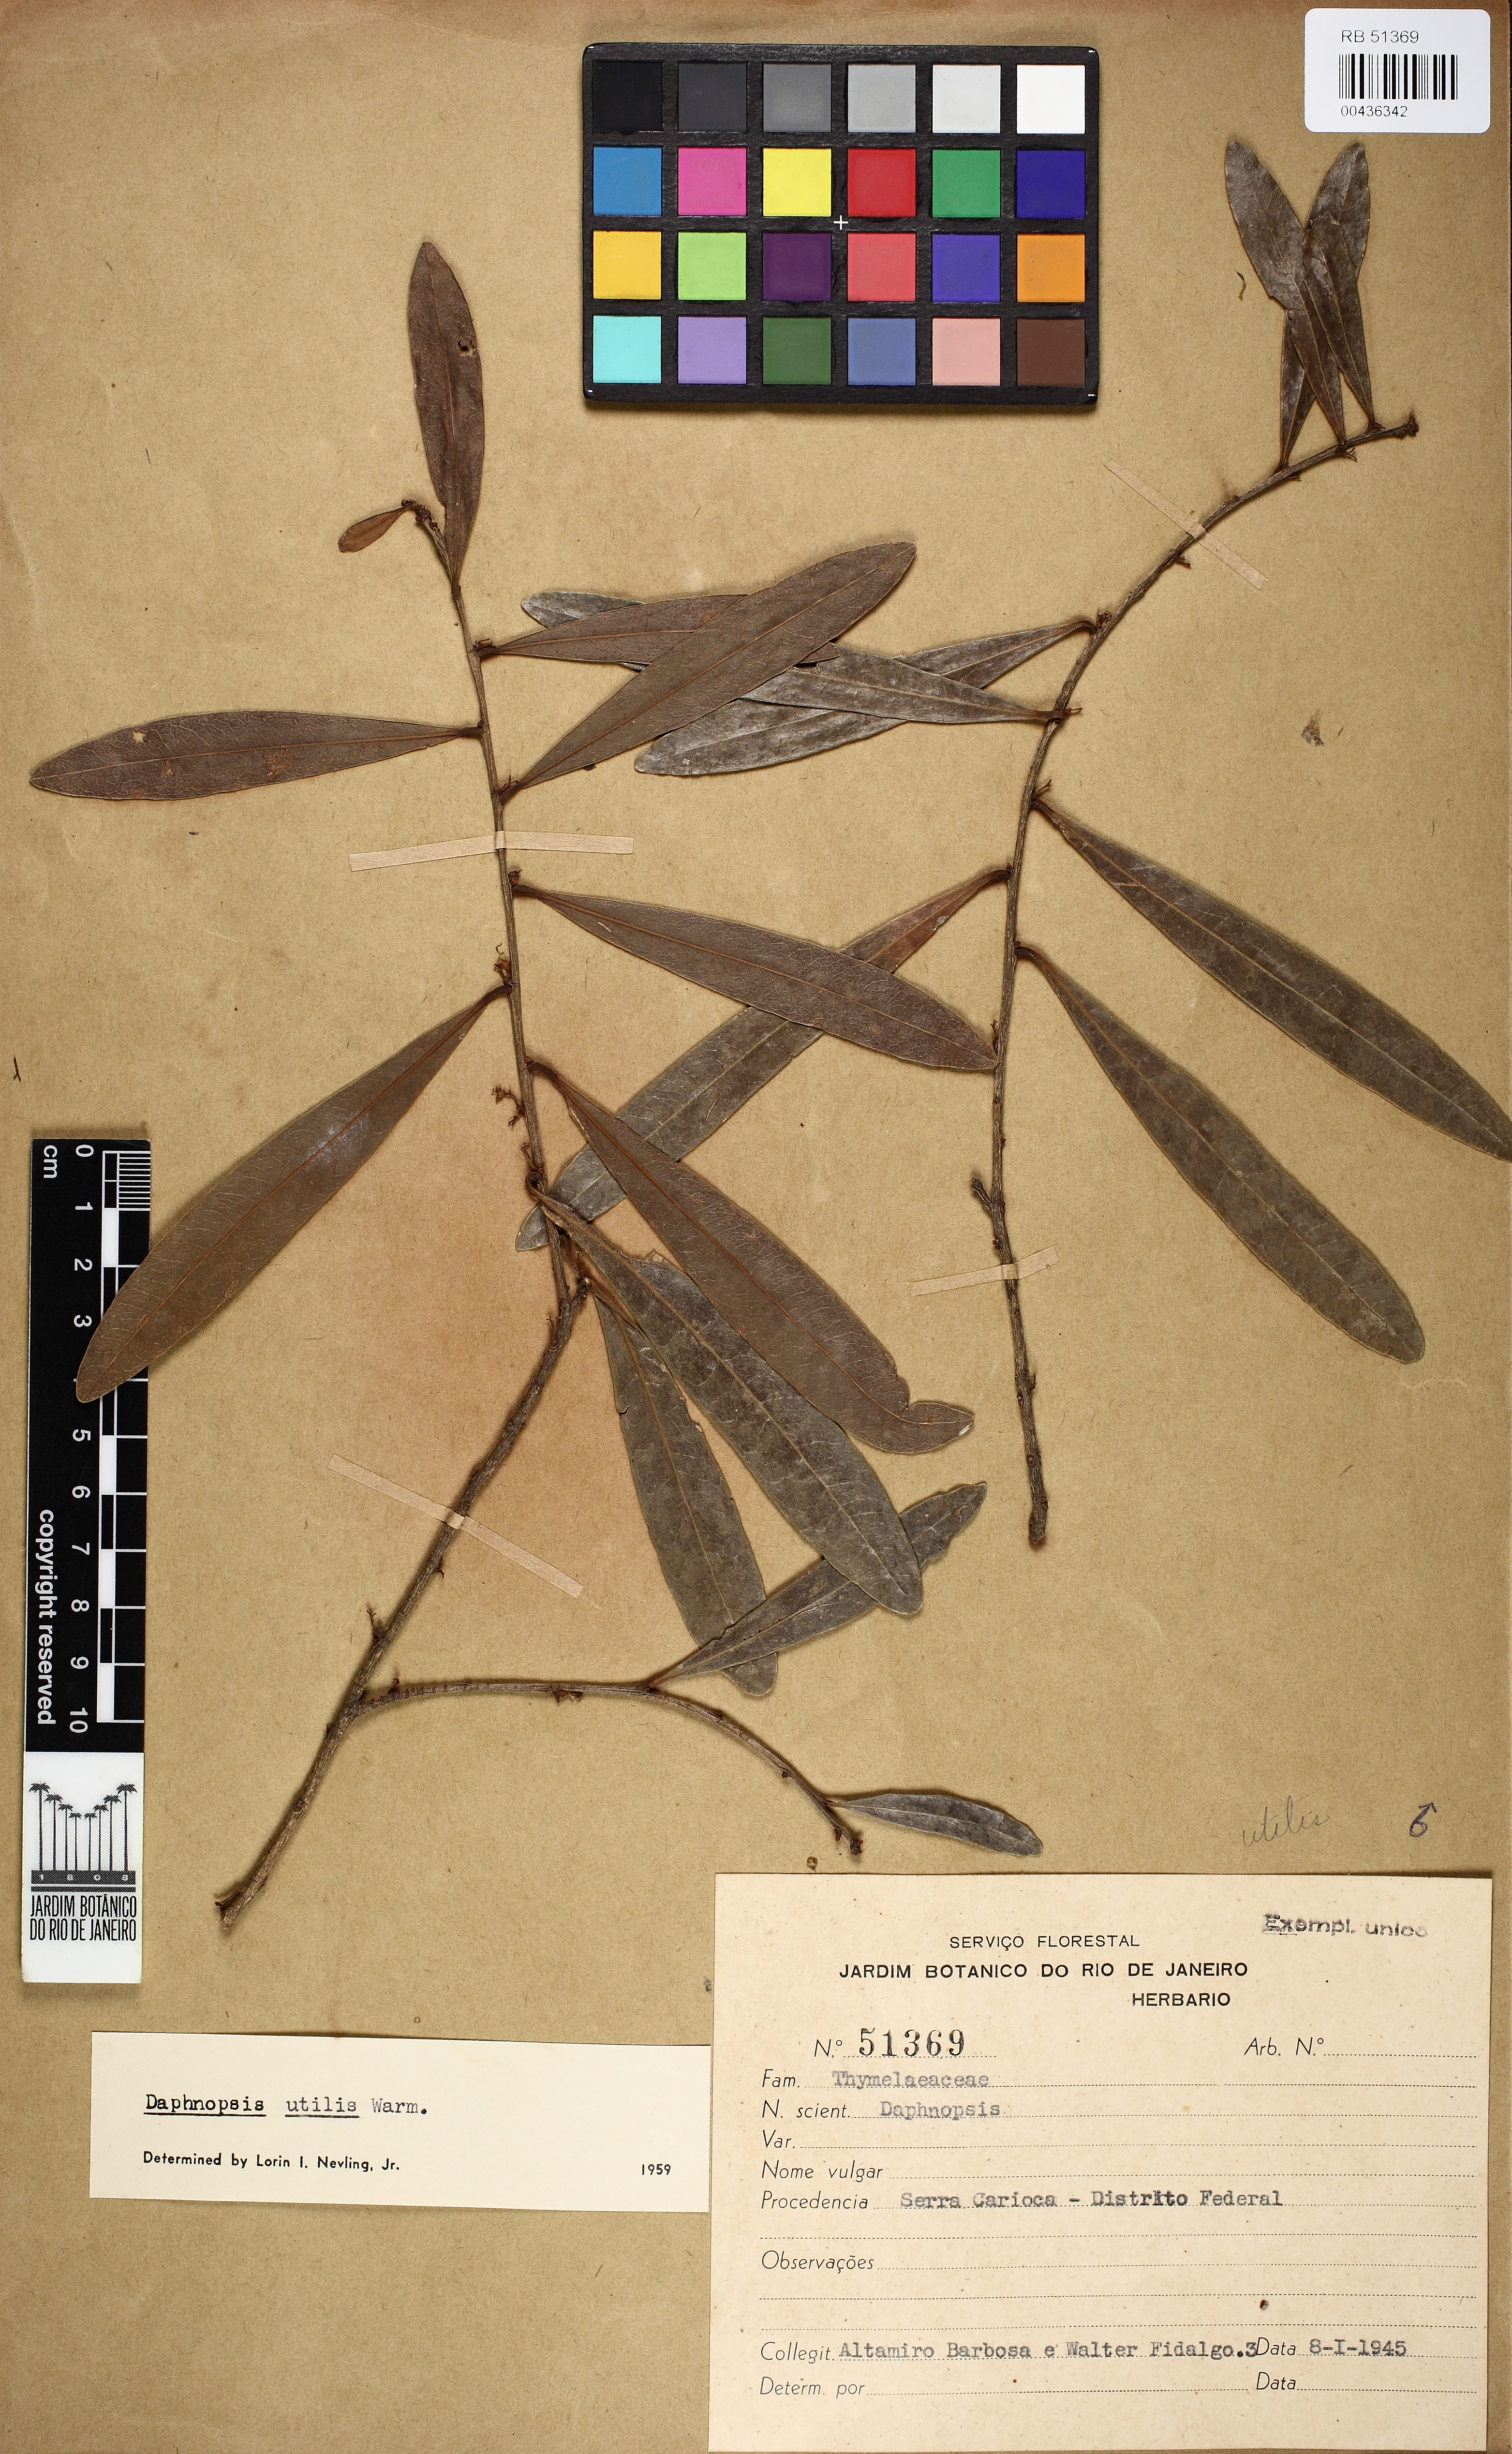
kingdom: Plantae
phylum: Tracheophyta
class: Magnoliopsida
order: Malvales
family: Thymelaeaceae
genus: Daphnopsis
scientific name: Daphnopsis utilis
